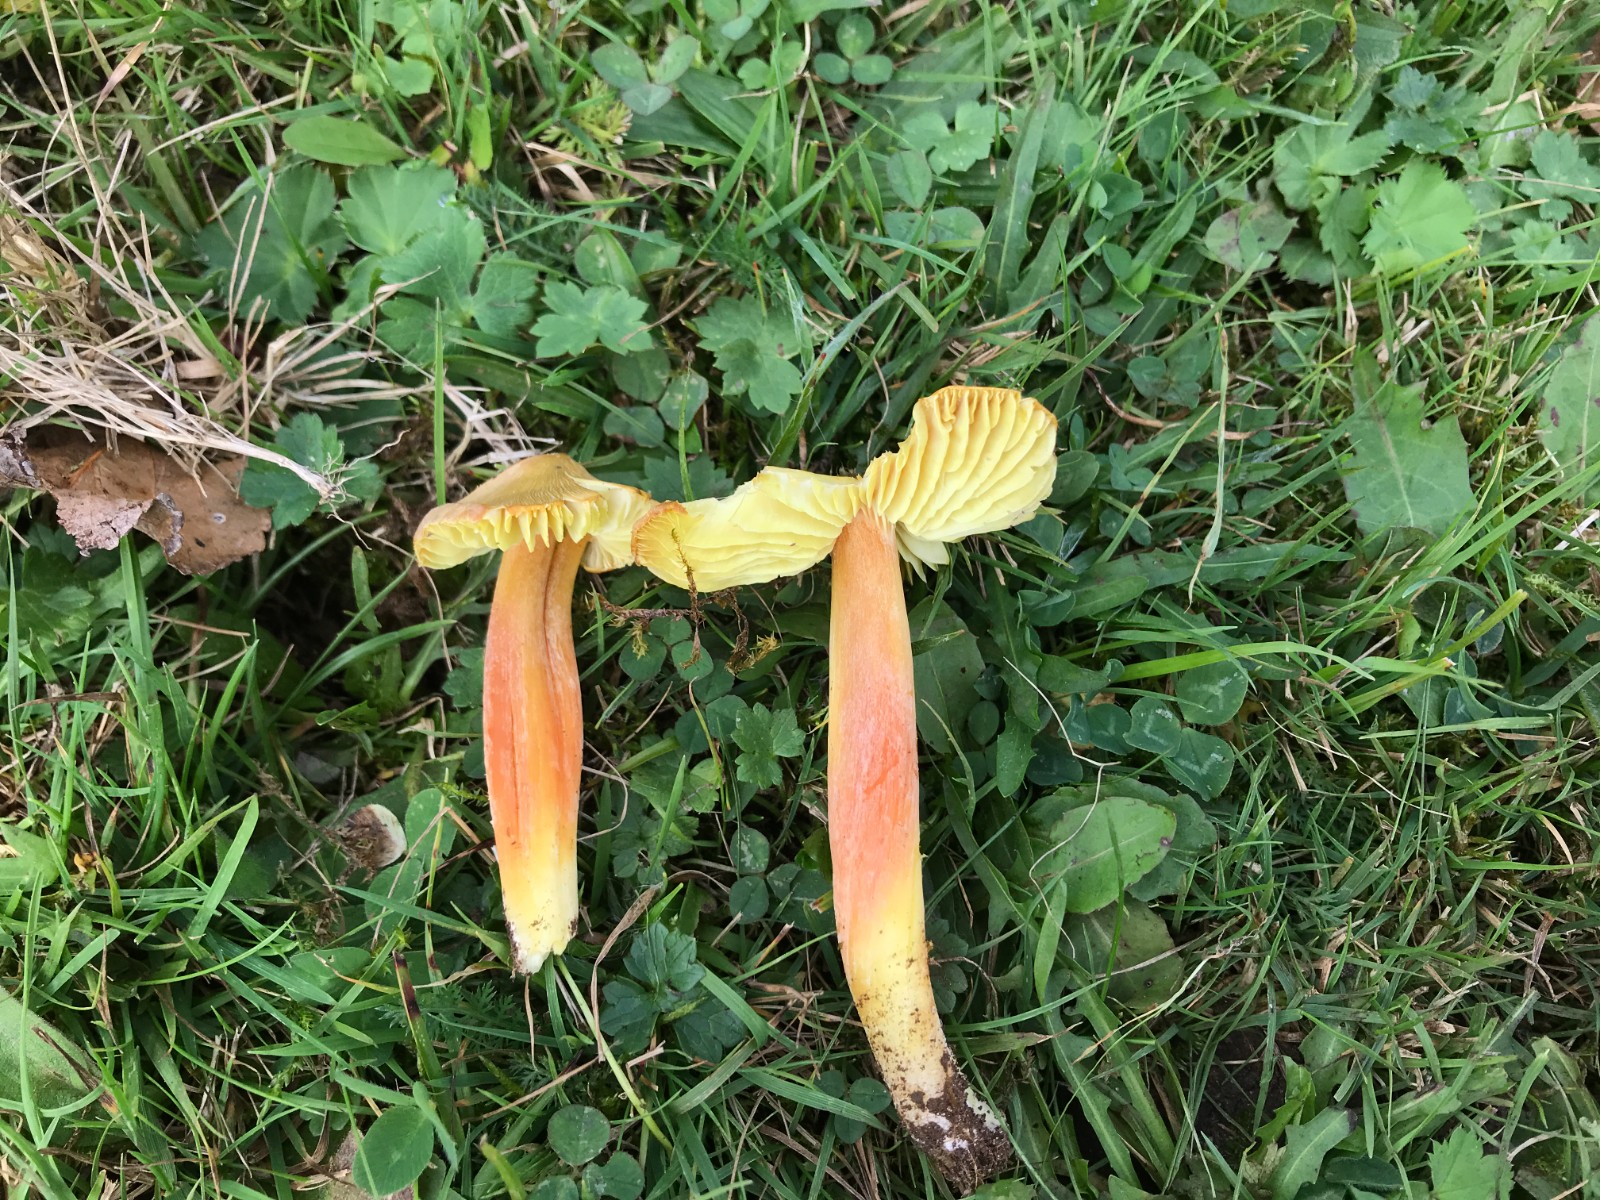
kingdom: Fungi
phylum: Basidiomycota
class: Agaricomycetes
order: Agaricales
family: Hygrophoraceae
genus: Hygrocybe
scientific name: Hygrocybe citrinovirens
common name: grøngul vokshat
